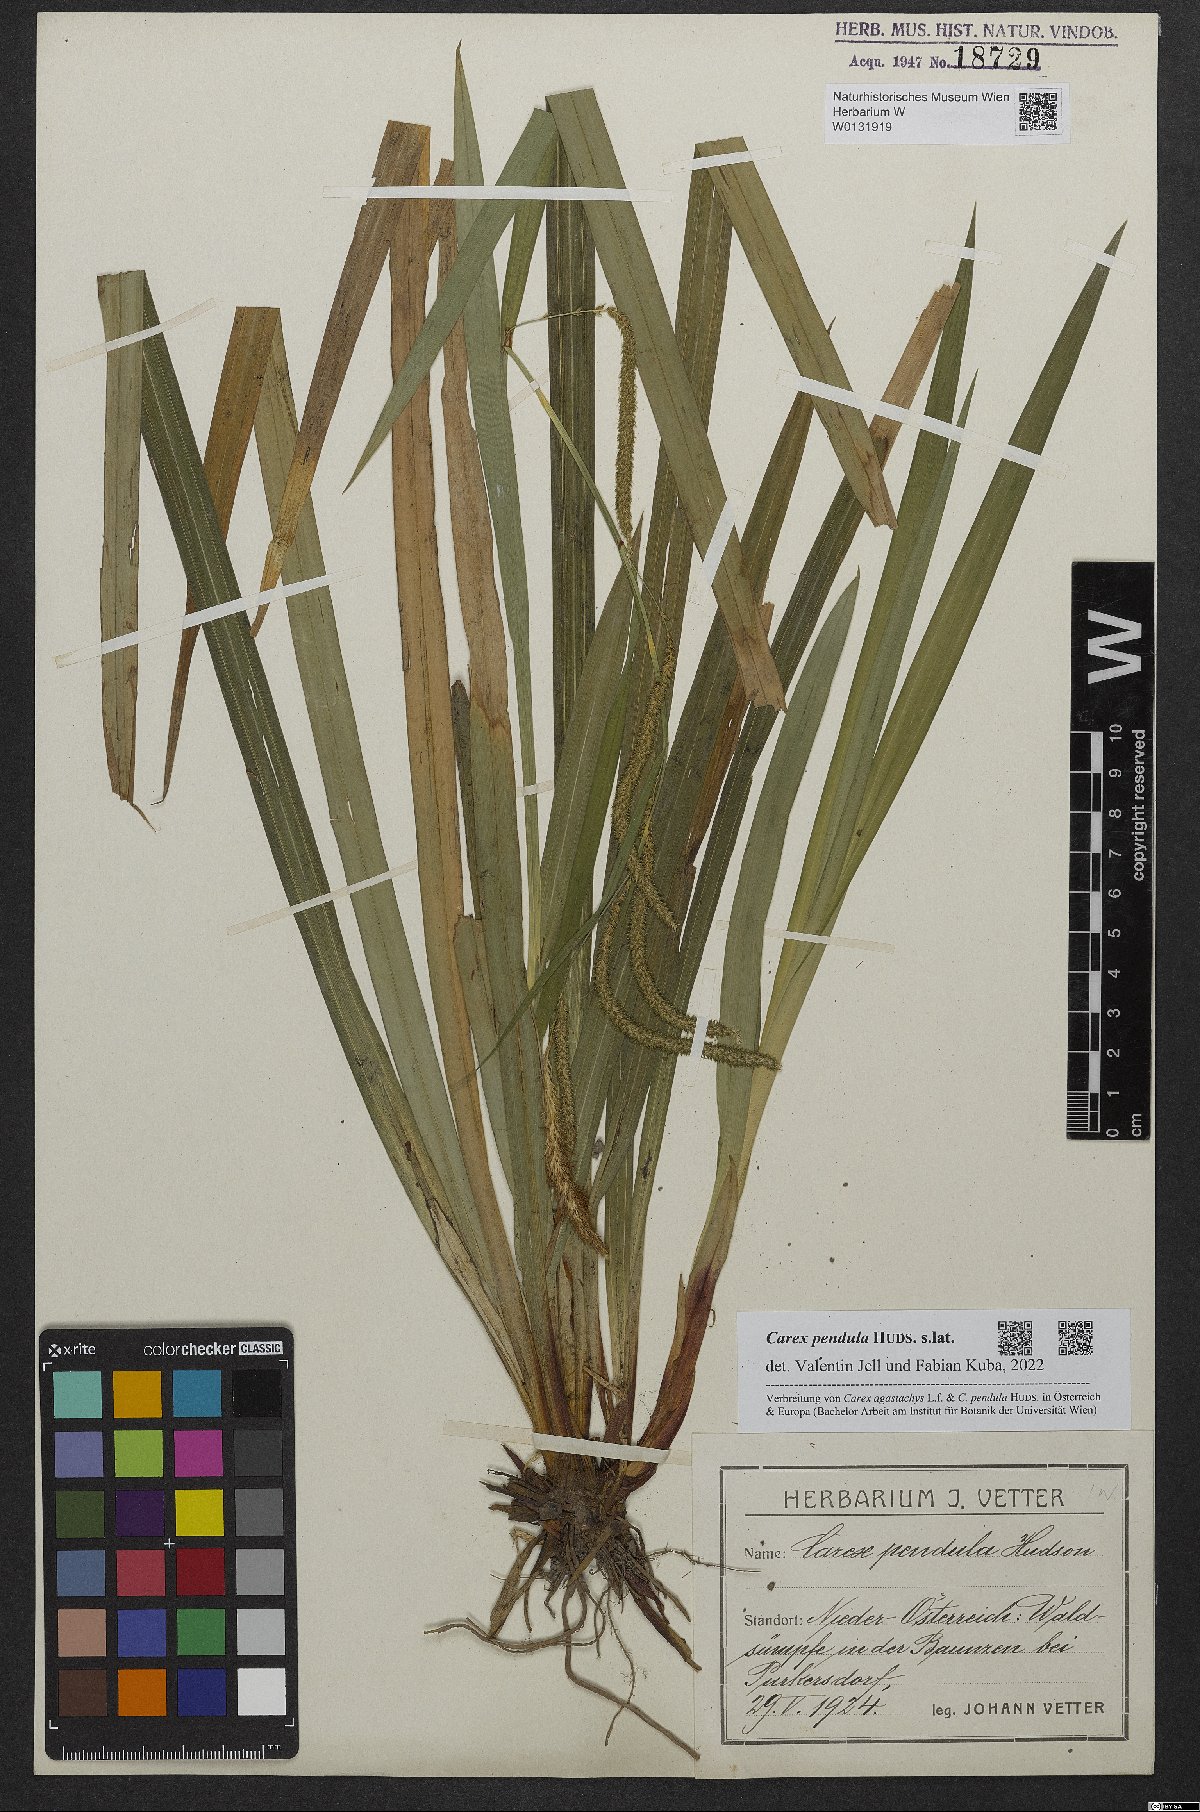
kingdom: Plantae
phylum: Tracheophyta
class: Liliopsida
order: Poales
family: Cyperaceae
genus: Carex
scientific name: Carex pendula
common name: Pendulous sedge
